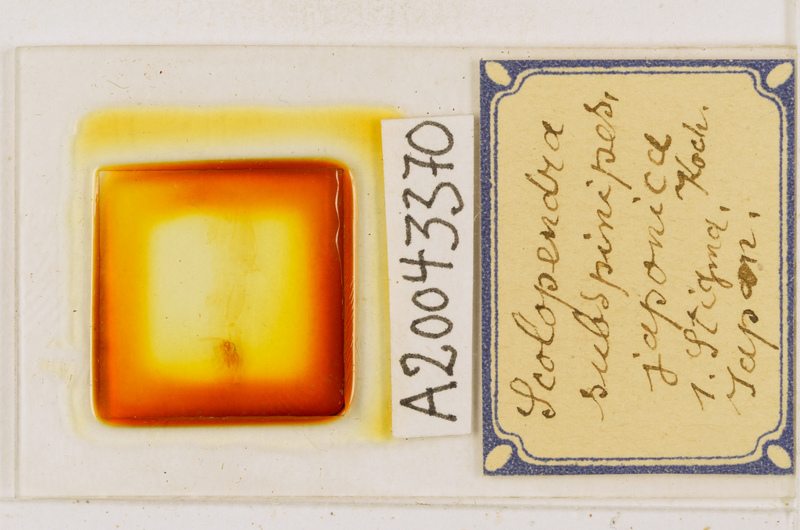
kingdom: Animalia
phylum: Arthropoda
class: Chilopoda
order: Scolopendromorpha
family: Scolopendridae
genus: Scolopendra
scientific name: Scolopendra subspinipes
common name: Centipede
